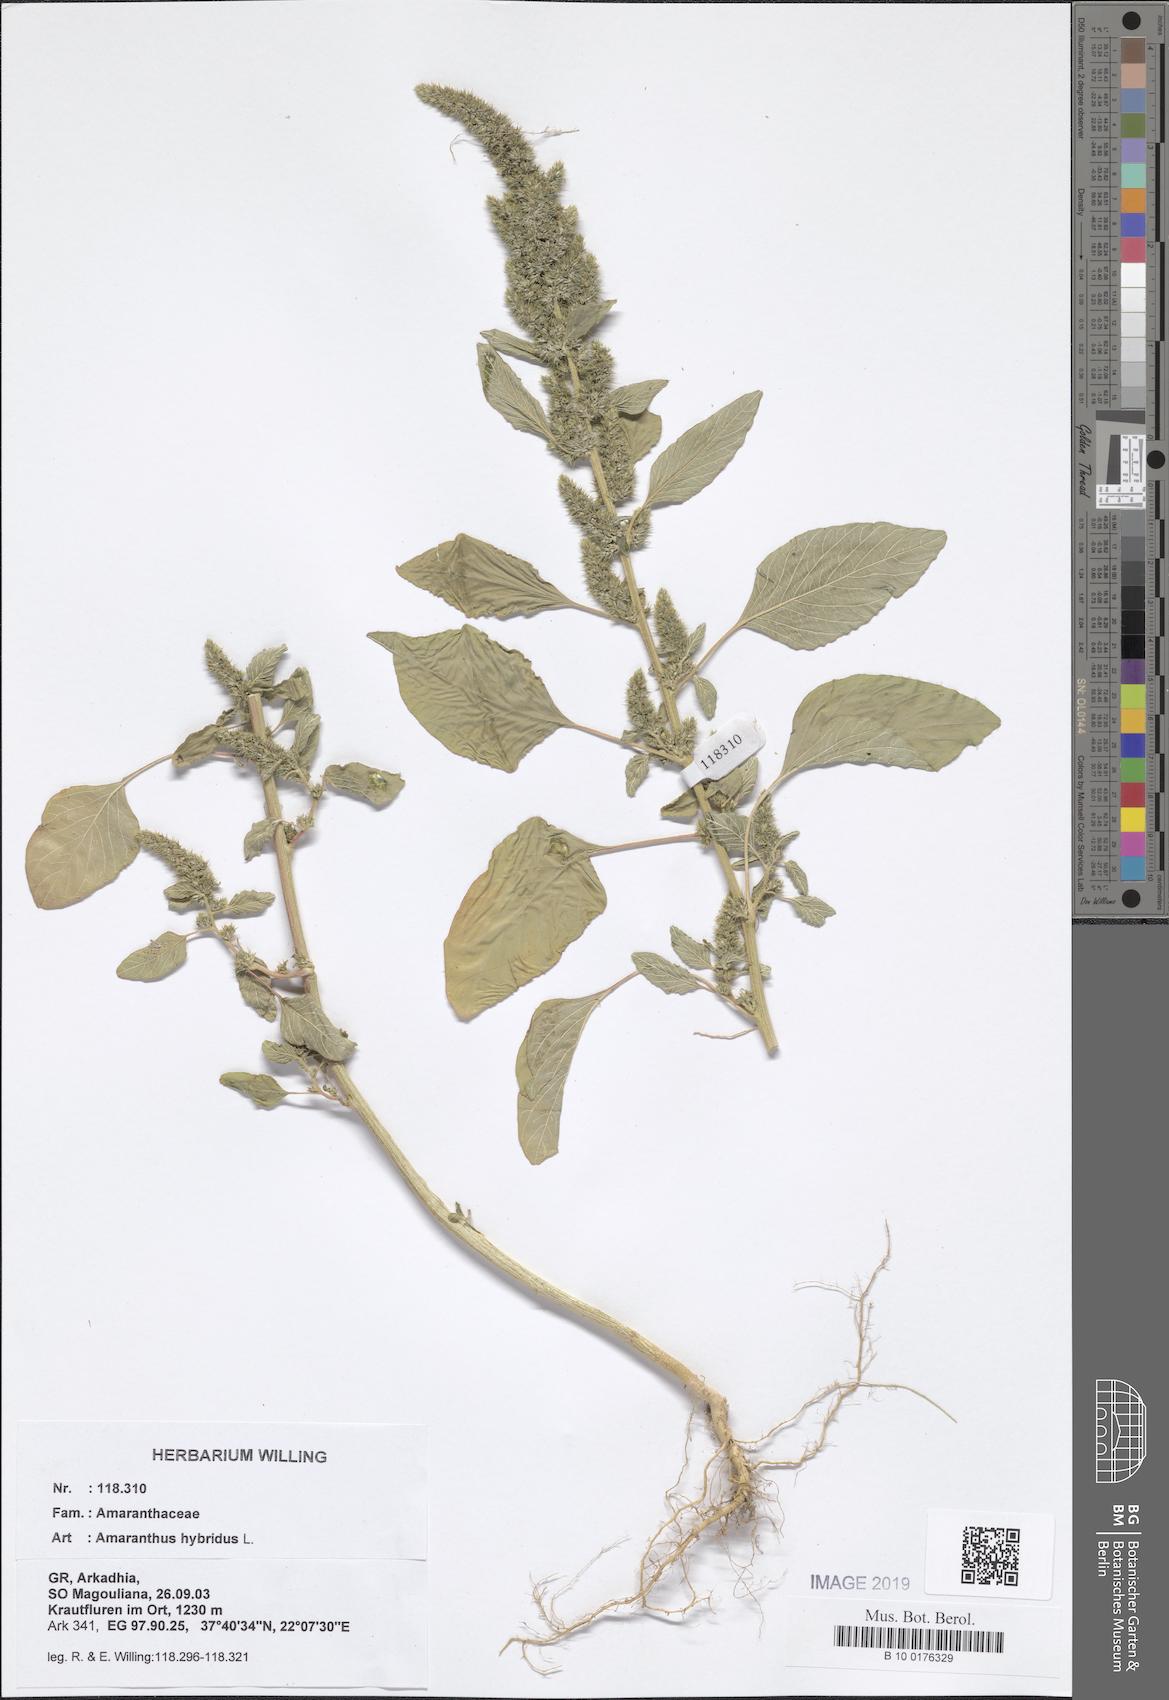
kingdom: Plantae
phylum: Tracheophyta
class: Magnoliopsida
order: Caryophyllales
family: Amaranthaceae
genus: Amaranthus
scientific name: Amaranthus hybridus
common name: Green amaranth
